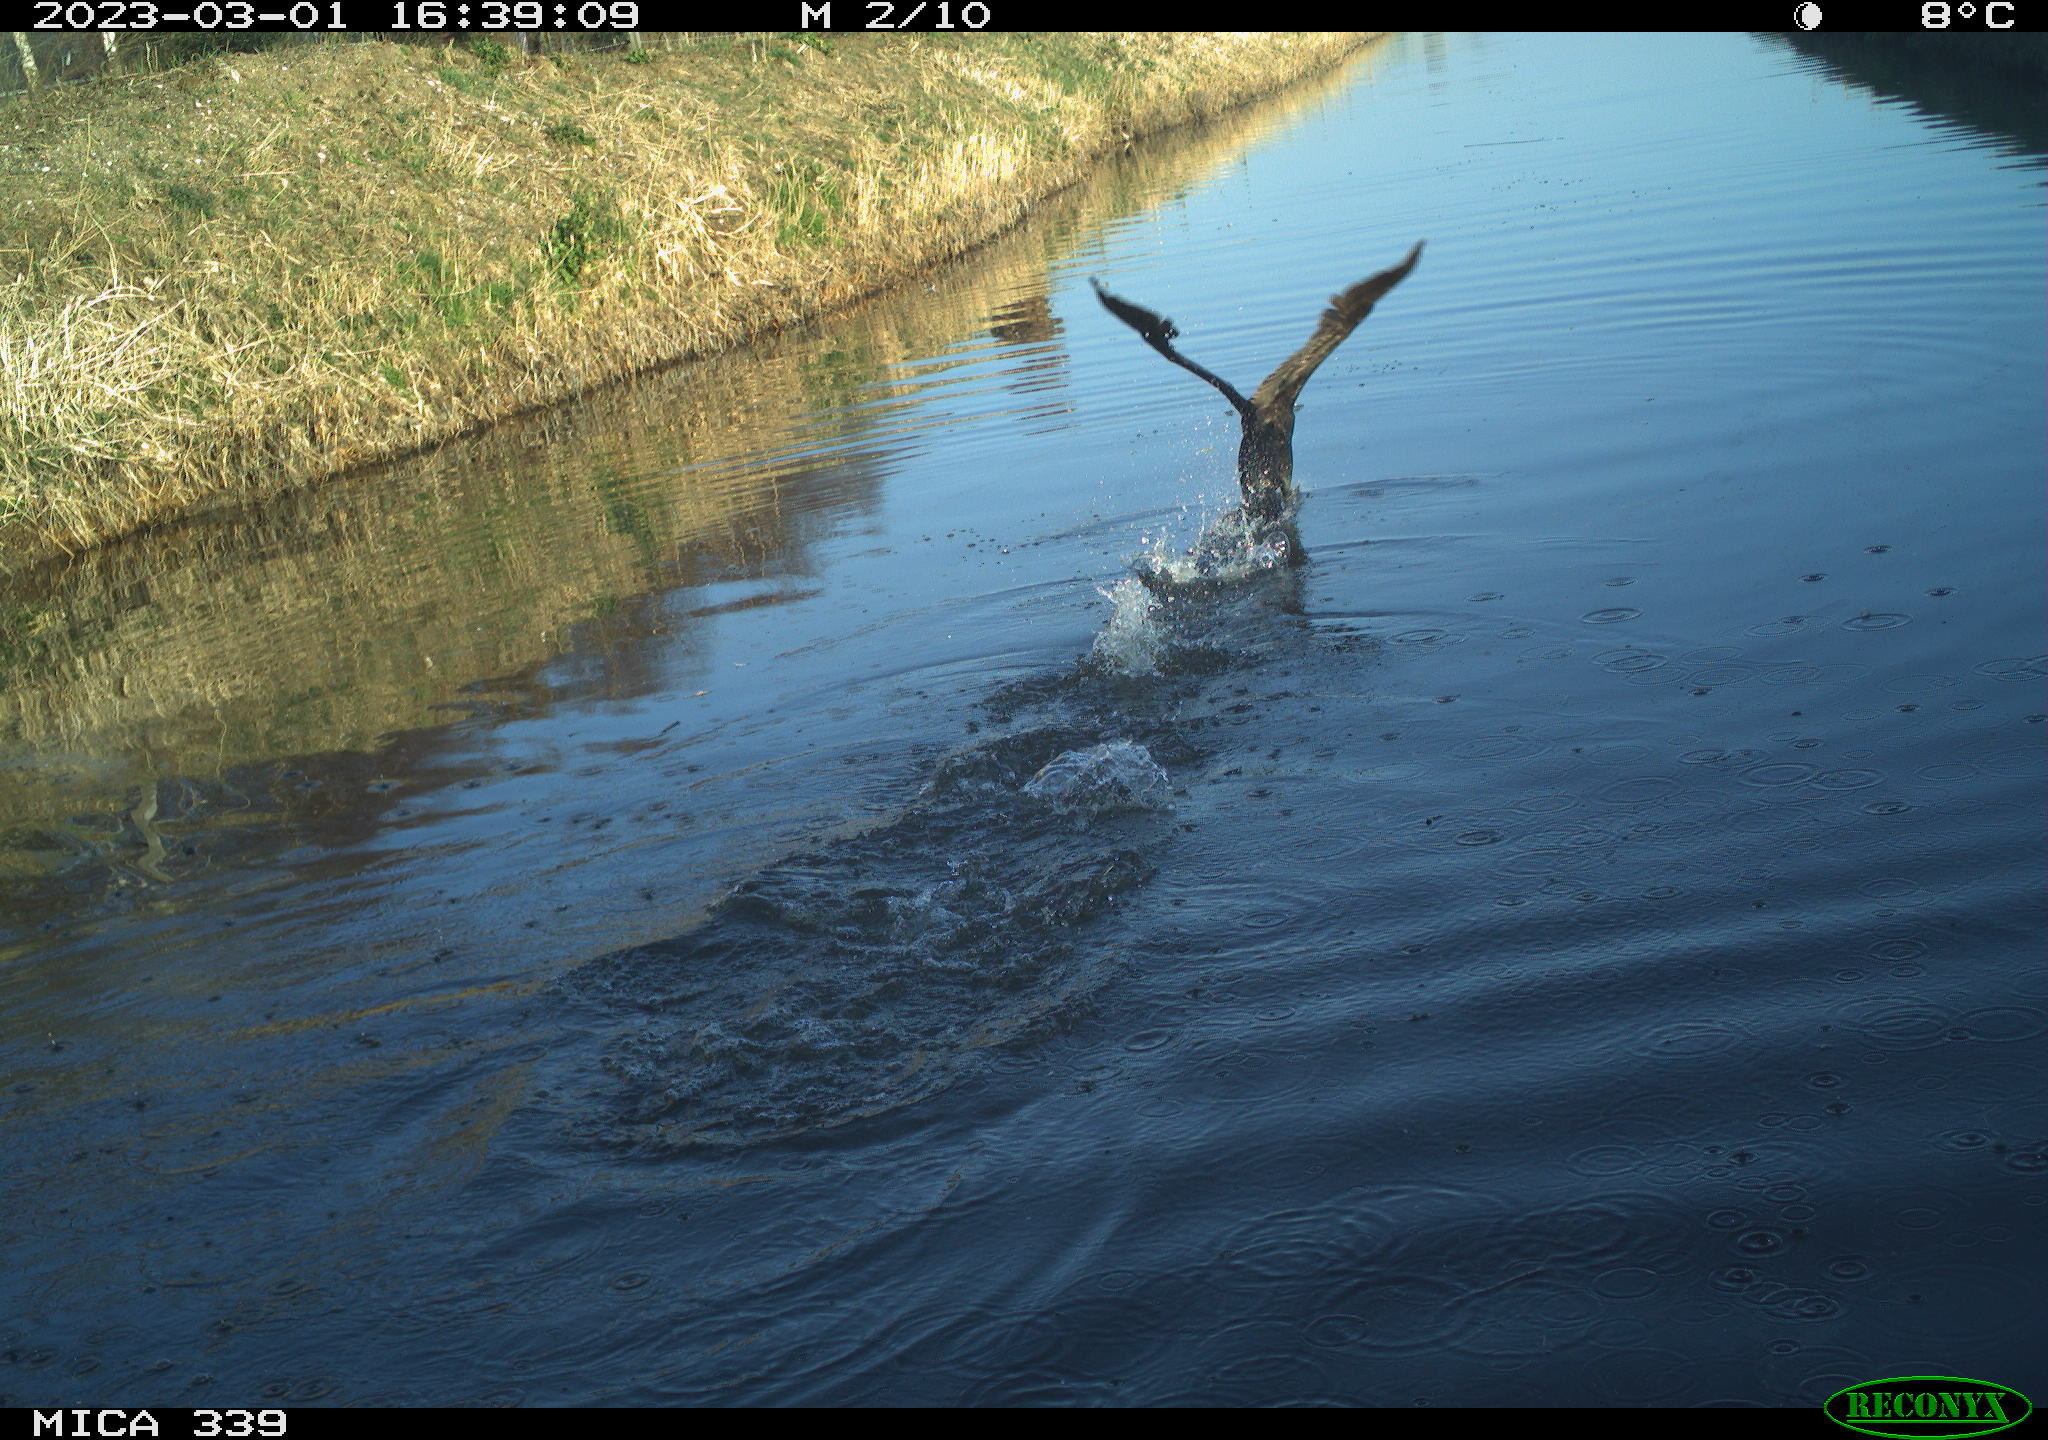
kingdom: Animalia
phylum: Chordata
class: Aves
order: Suliformes
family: Phalacrocoracidae
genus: Phalacrocorax
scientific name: Phalacrocorax carbo
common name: Great cormorant
